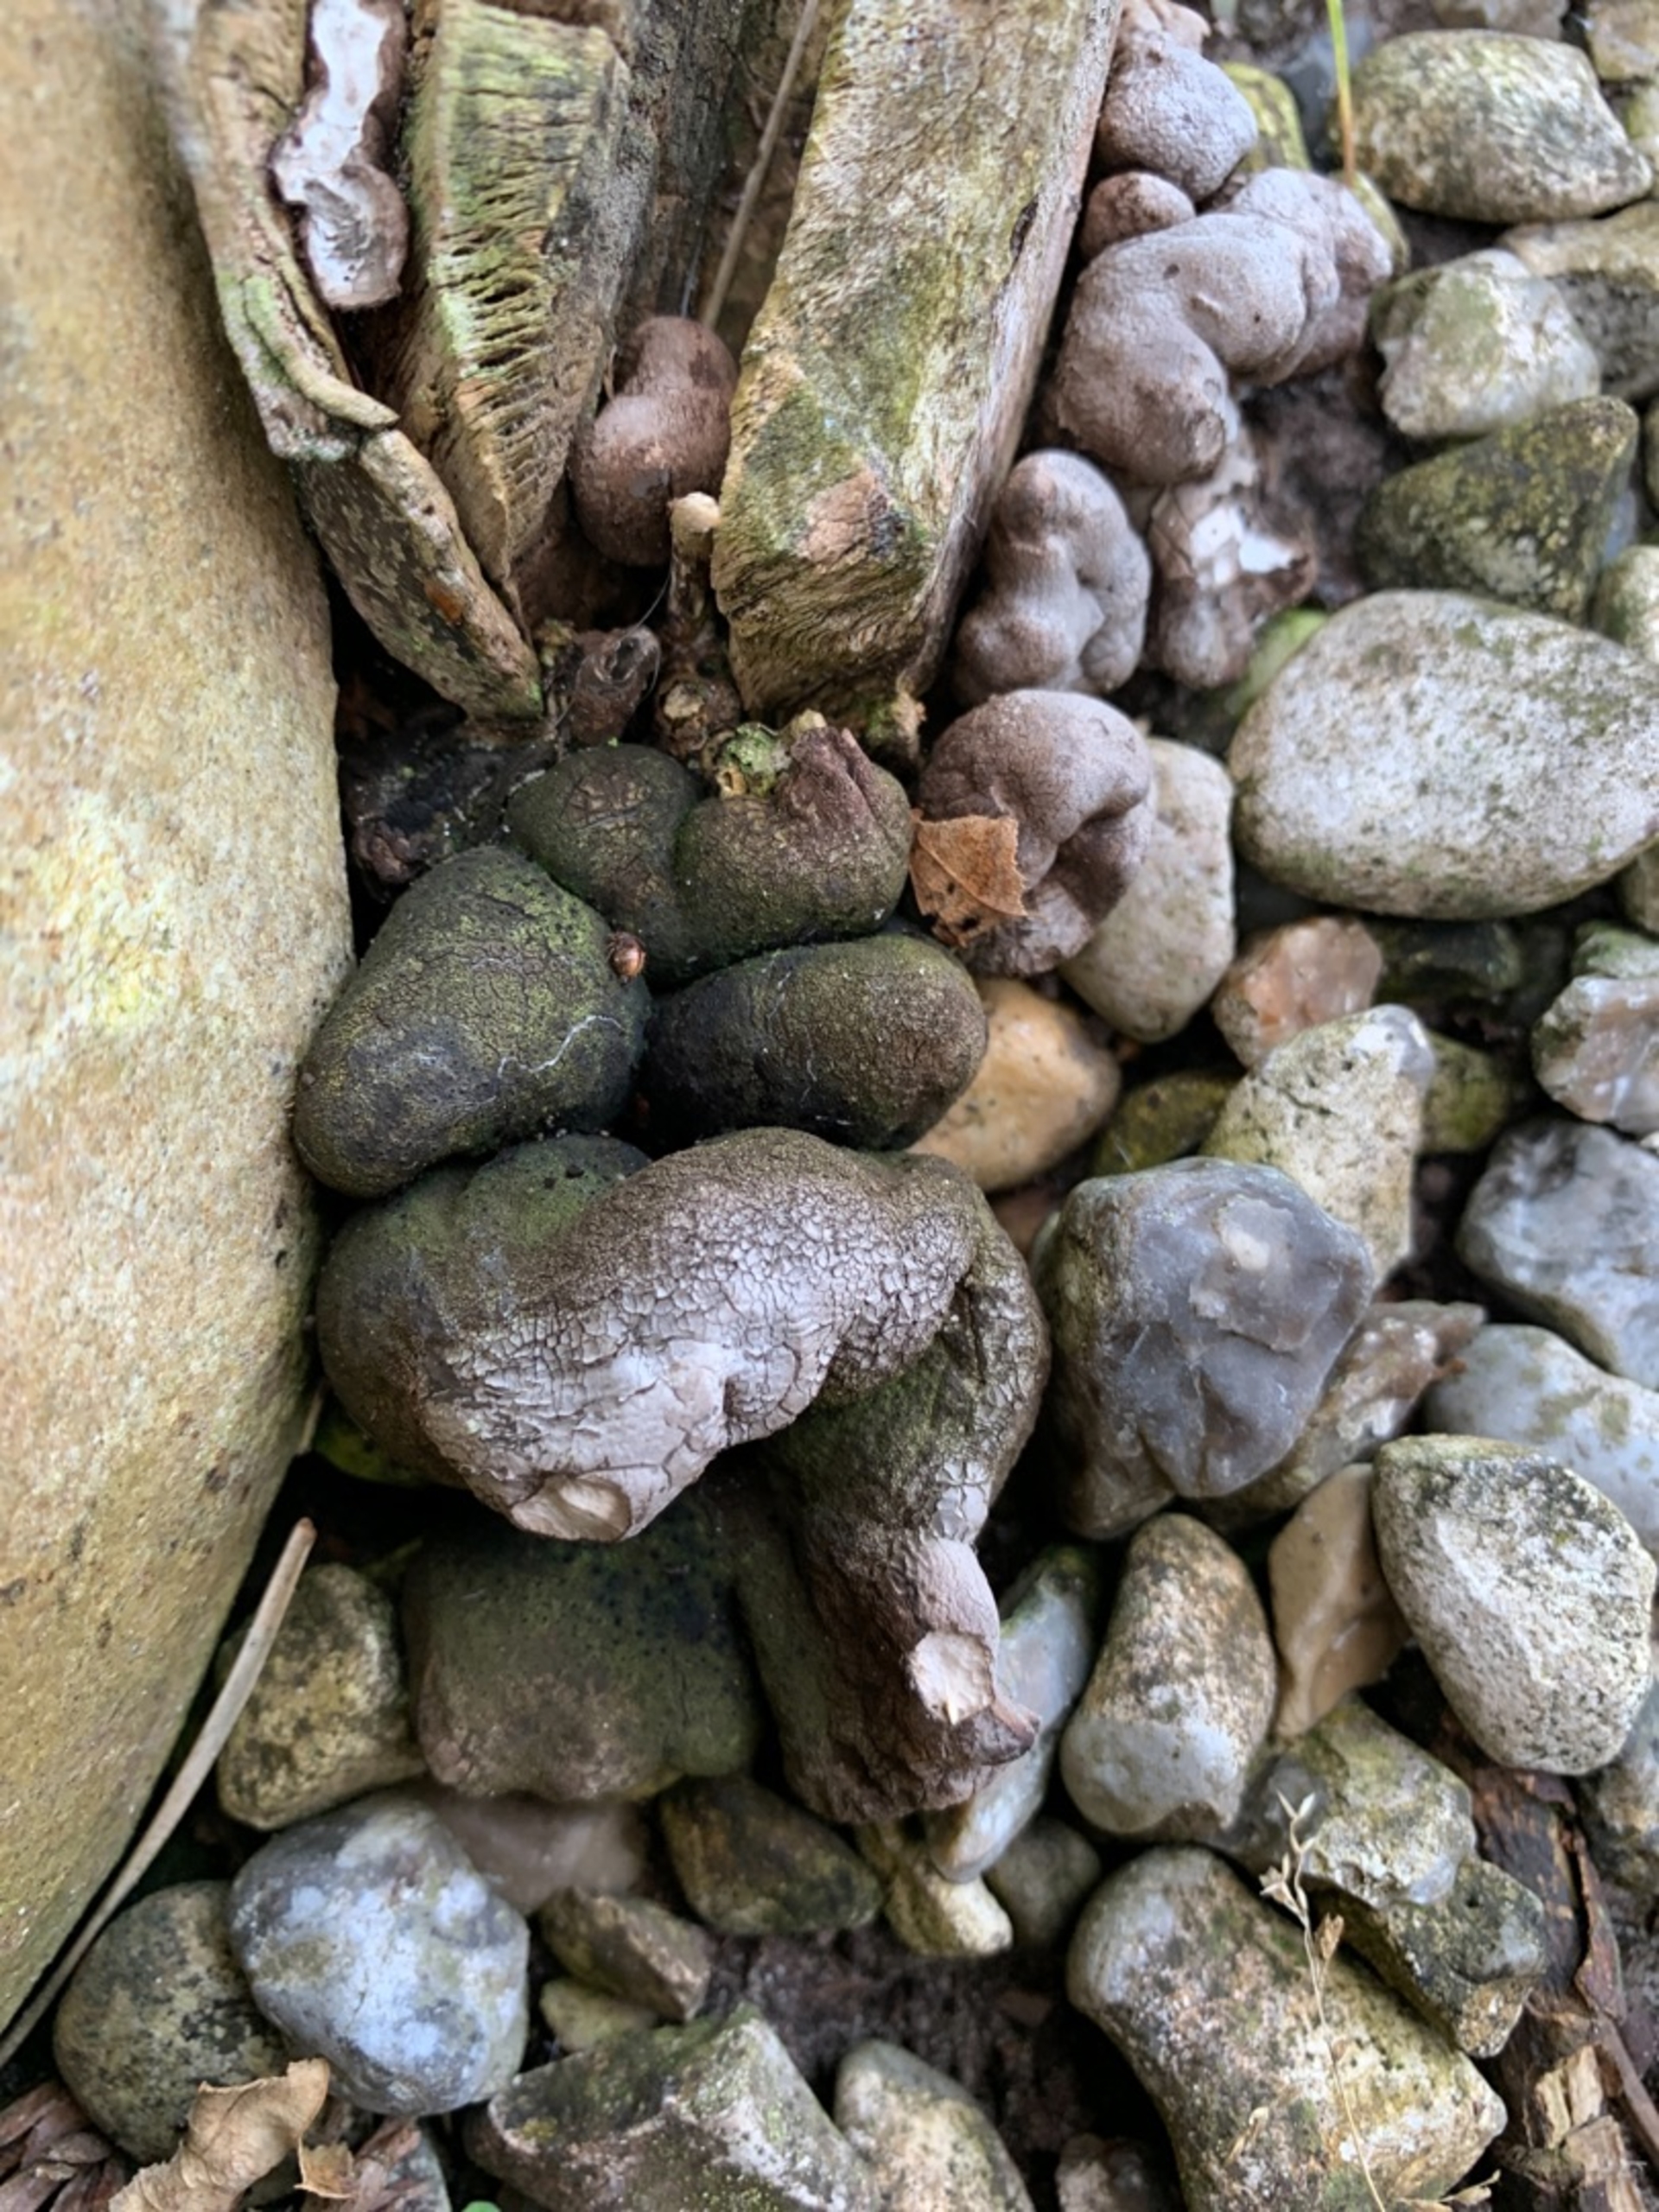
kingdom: Fungi
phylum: Ascomycota
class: Sordariomycetes
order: Xylariales
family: Xylariaceae
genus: Xylaria
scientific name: Xylaria polymorpha
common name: Kølle-stødsvamp
